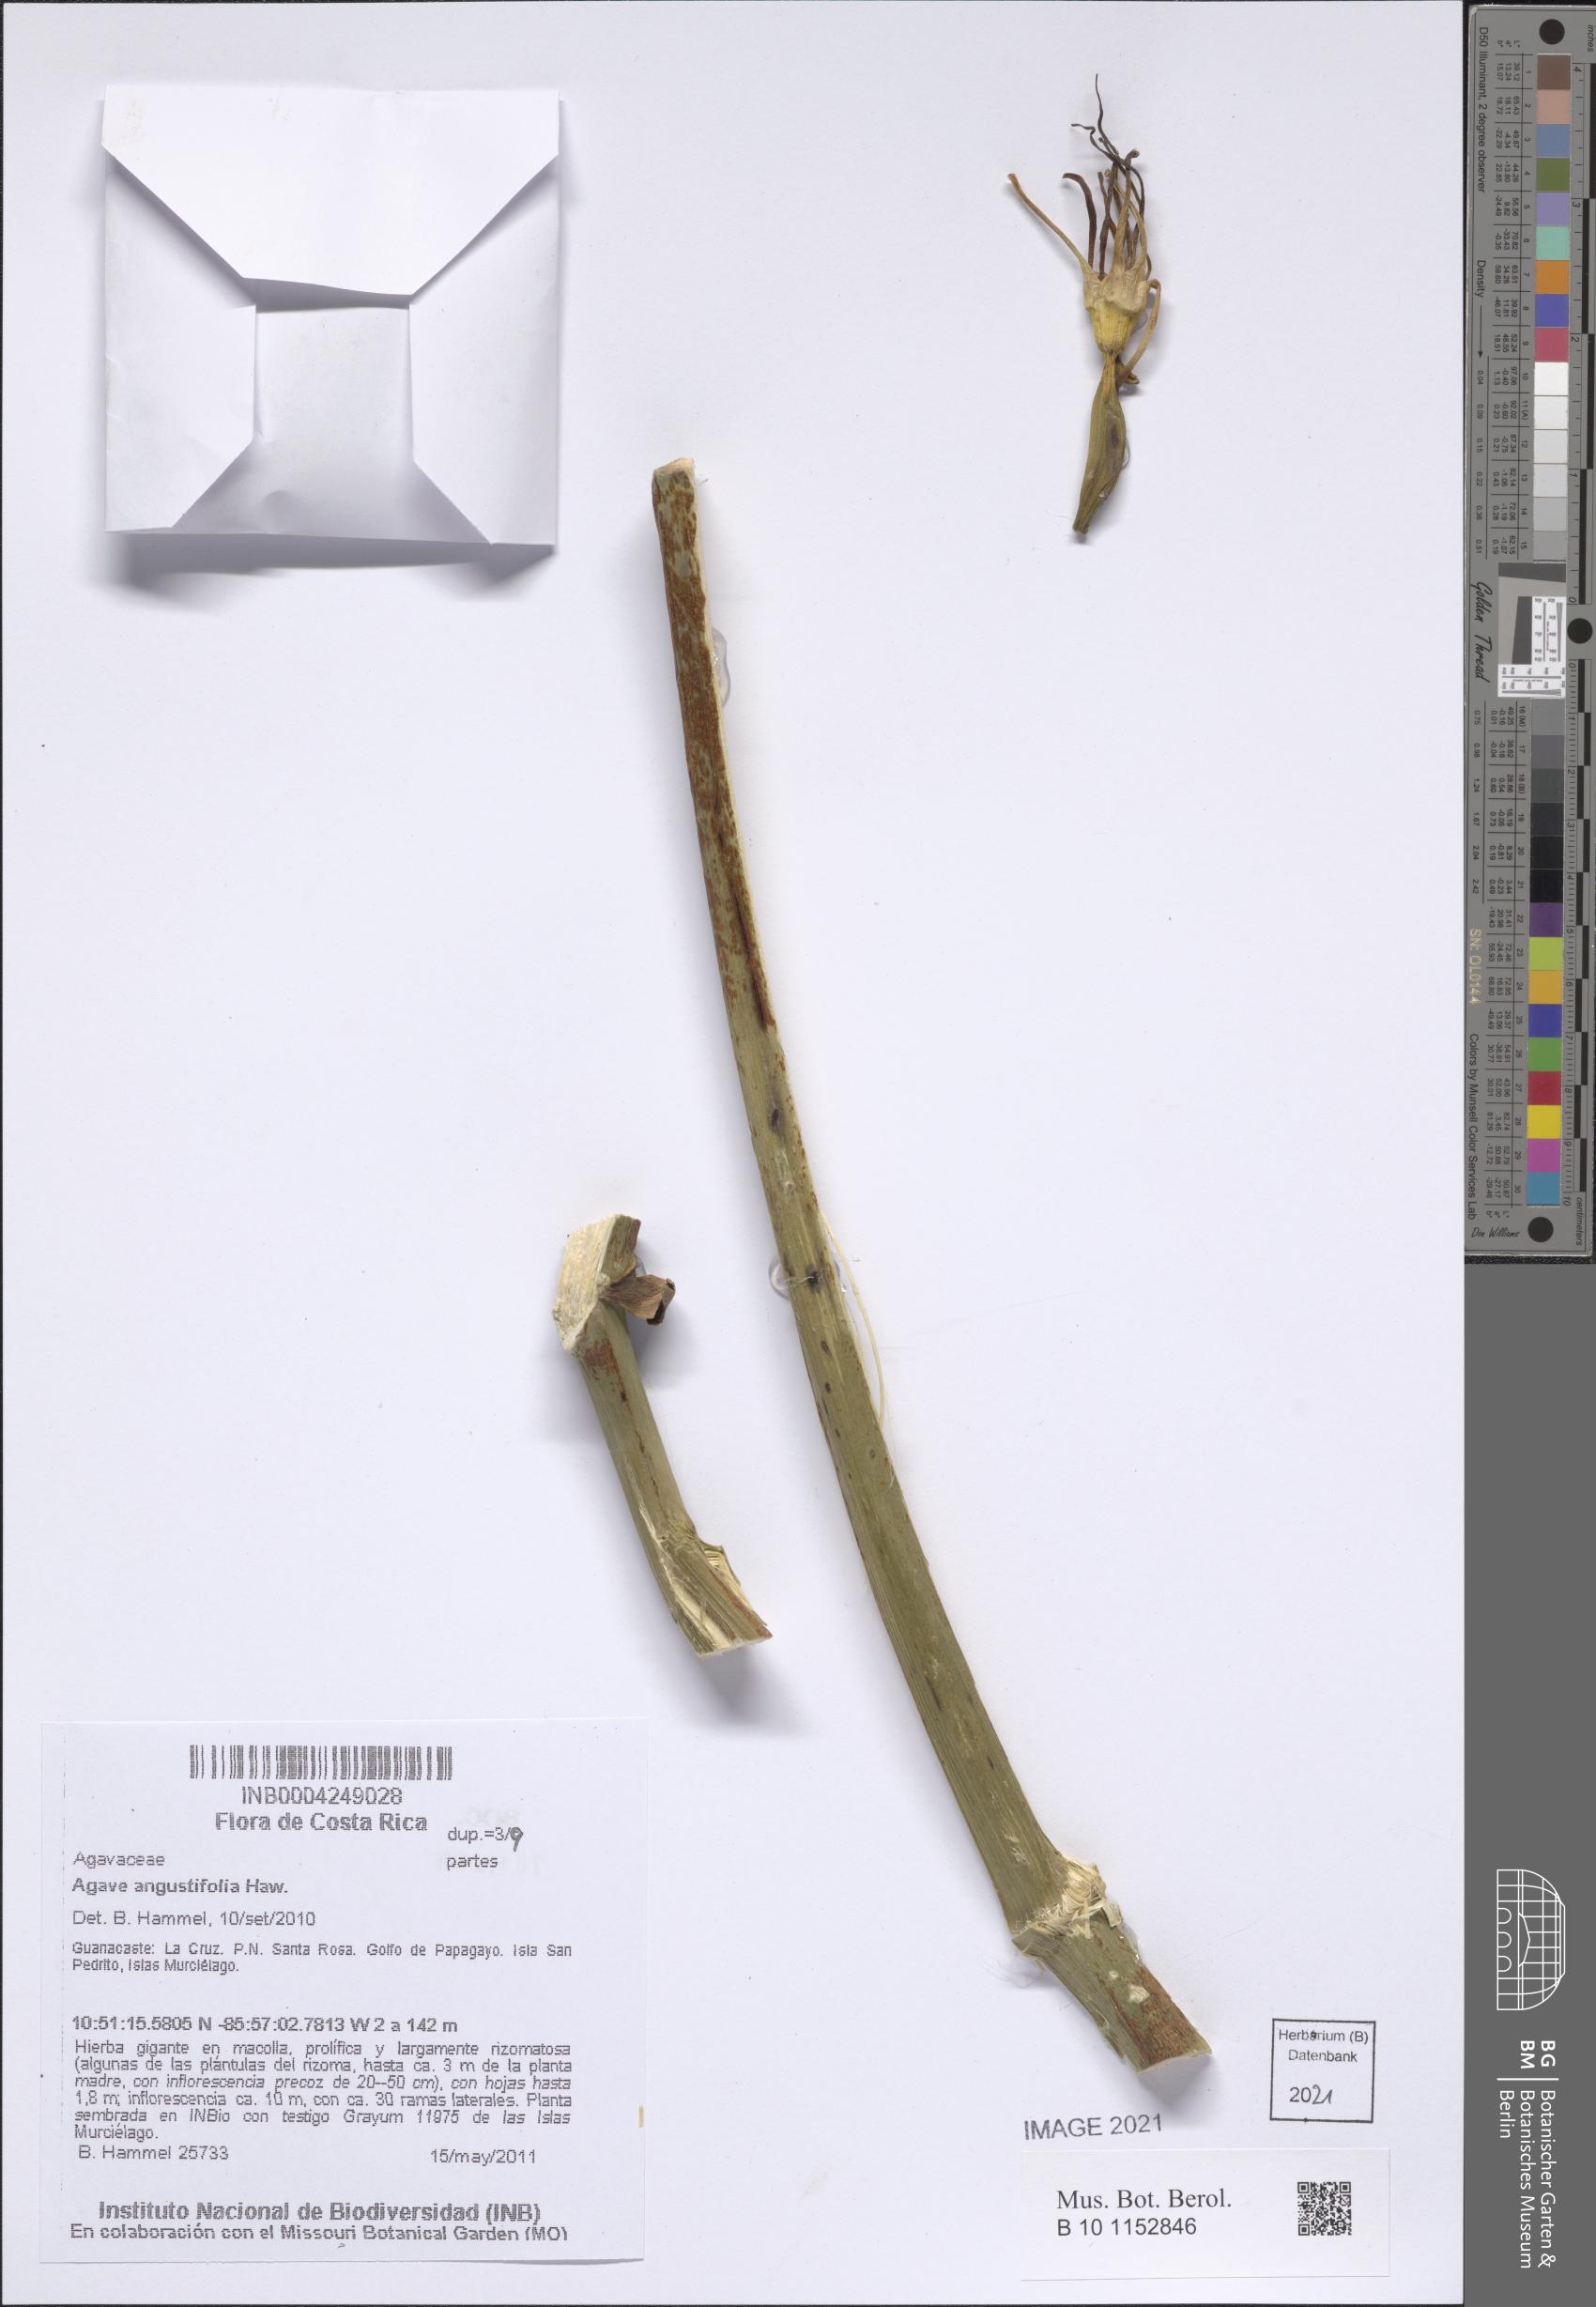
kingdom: Plantae
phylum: Tracheophyta
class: Liliopsida
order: Asparagales
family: Asparagaceae
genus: Agave
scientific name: Agave angustifolia
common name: Mescal agave
